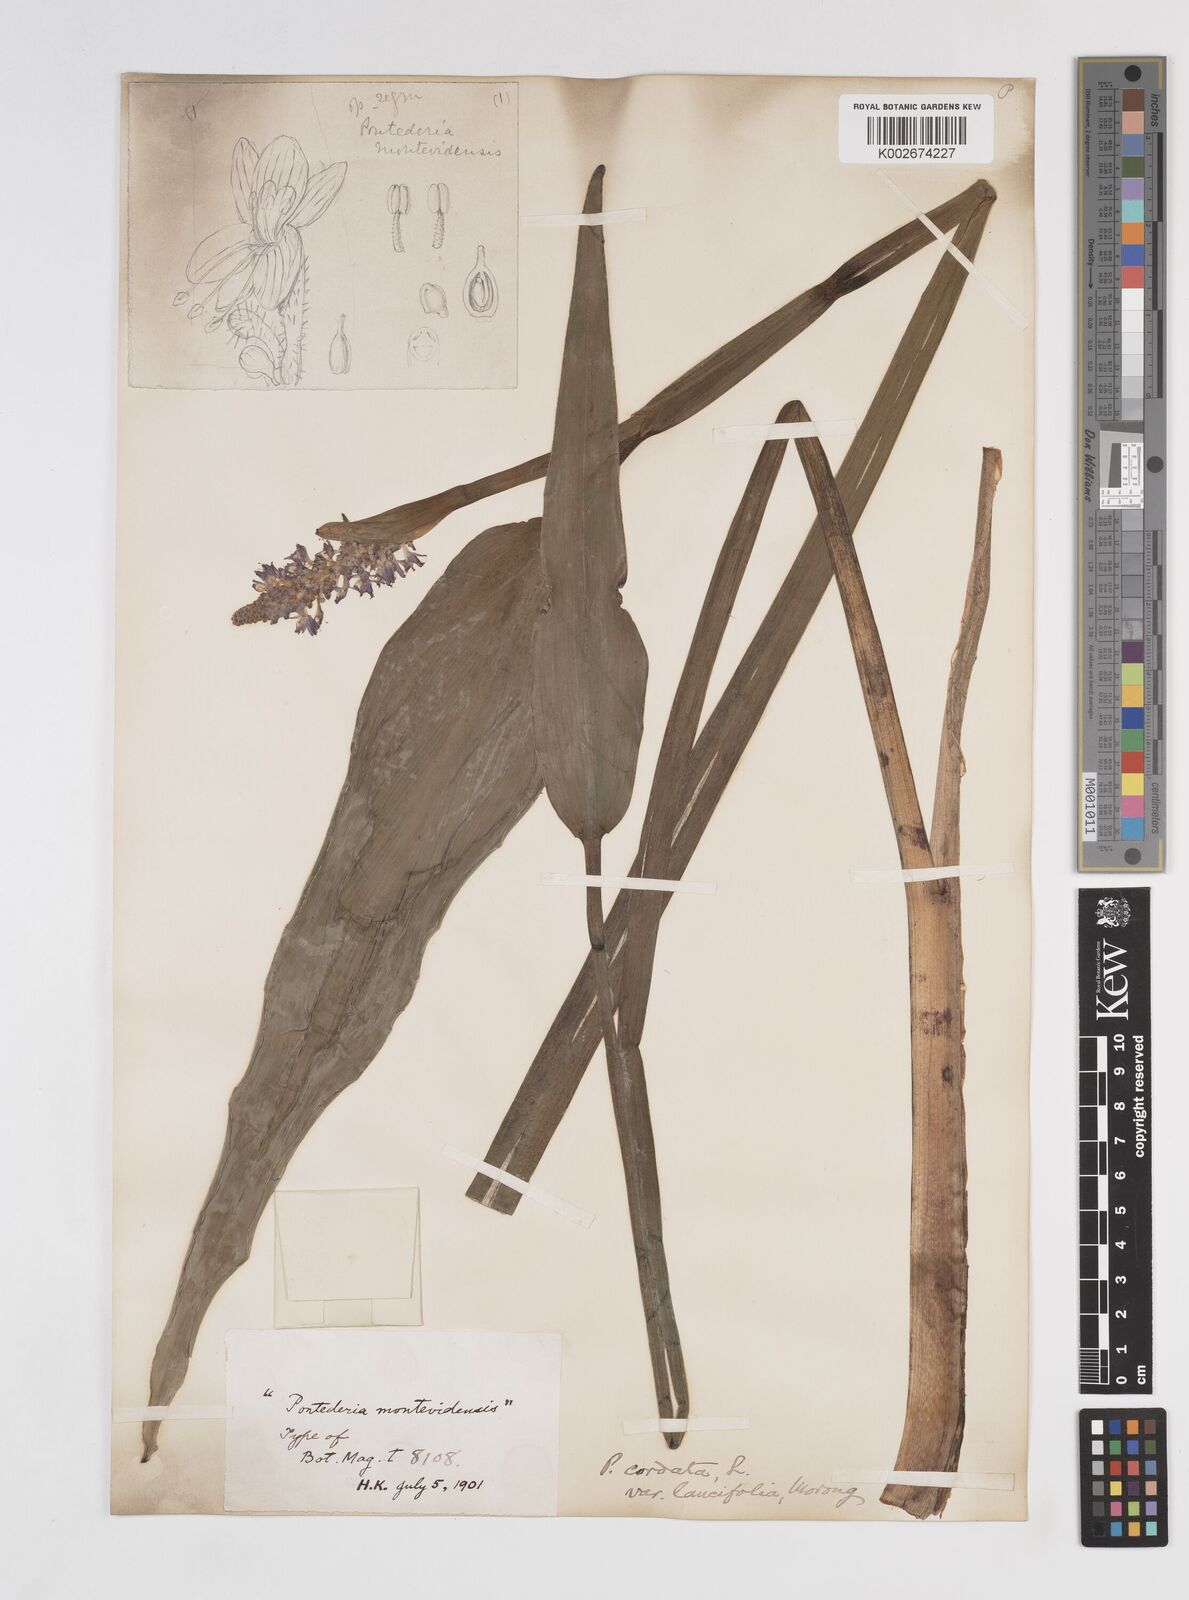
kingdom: Plantae
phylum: Tracheophyta
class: Liliopsida
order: Commelinales
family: Pontederiaceae
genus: Pontederia
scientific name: Pontederia
